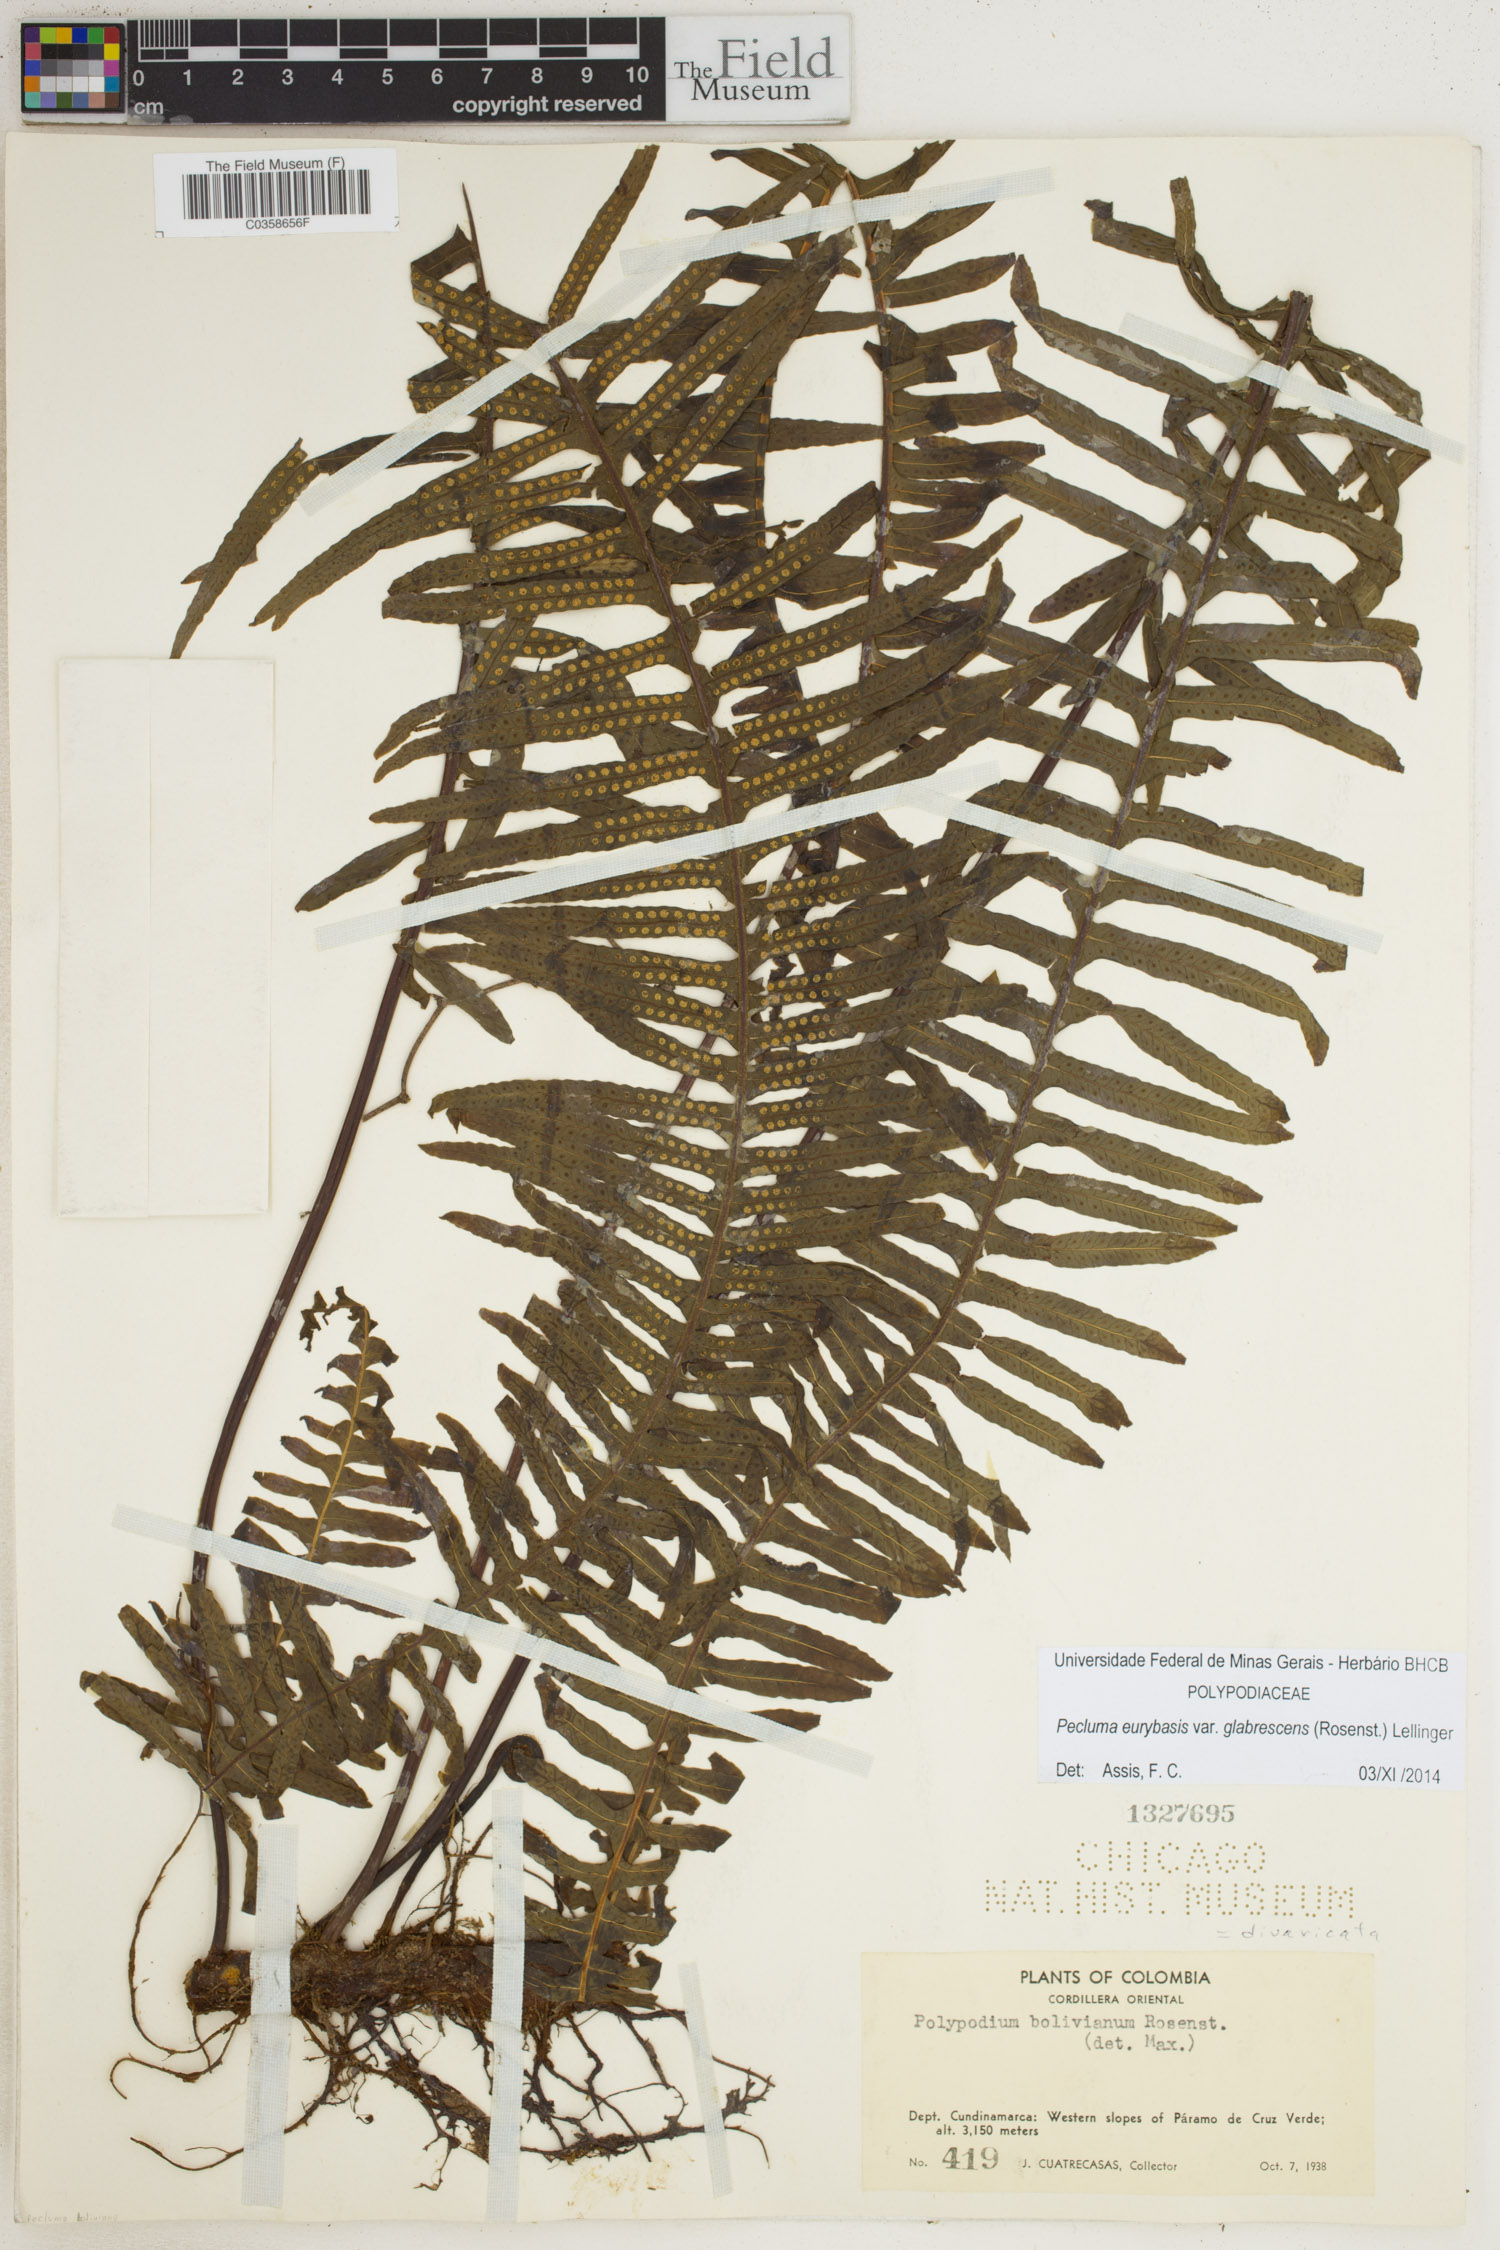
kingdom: Plantae
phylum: Tracheophyta
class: Polypodiopsida
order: Polypodiales
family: Polypodiaceae
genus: Pecluma
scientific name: Pecluma eurybasis
